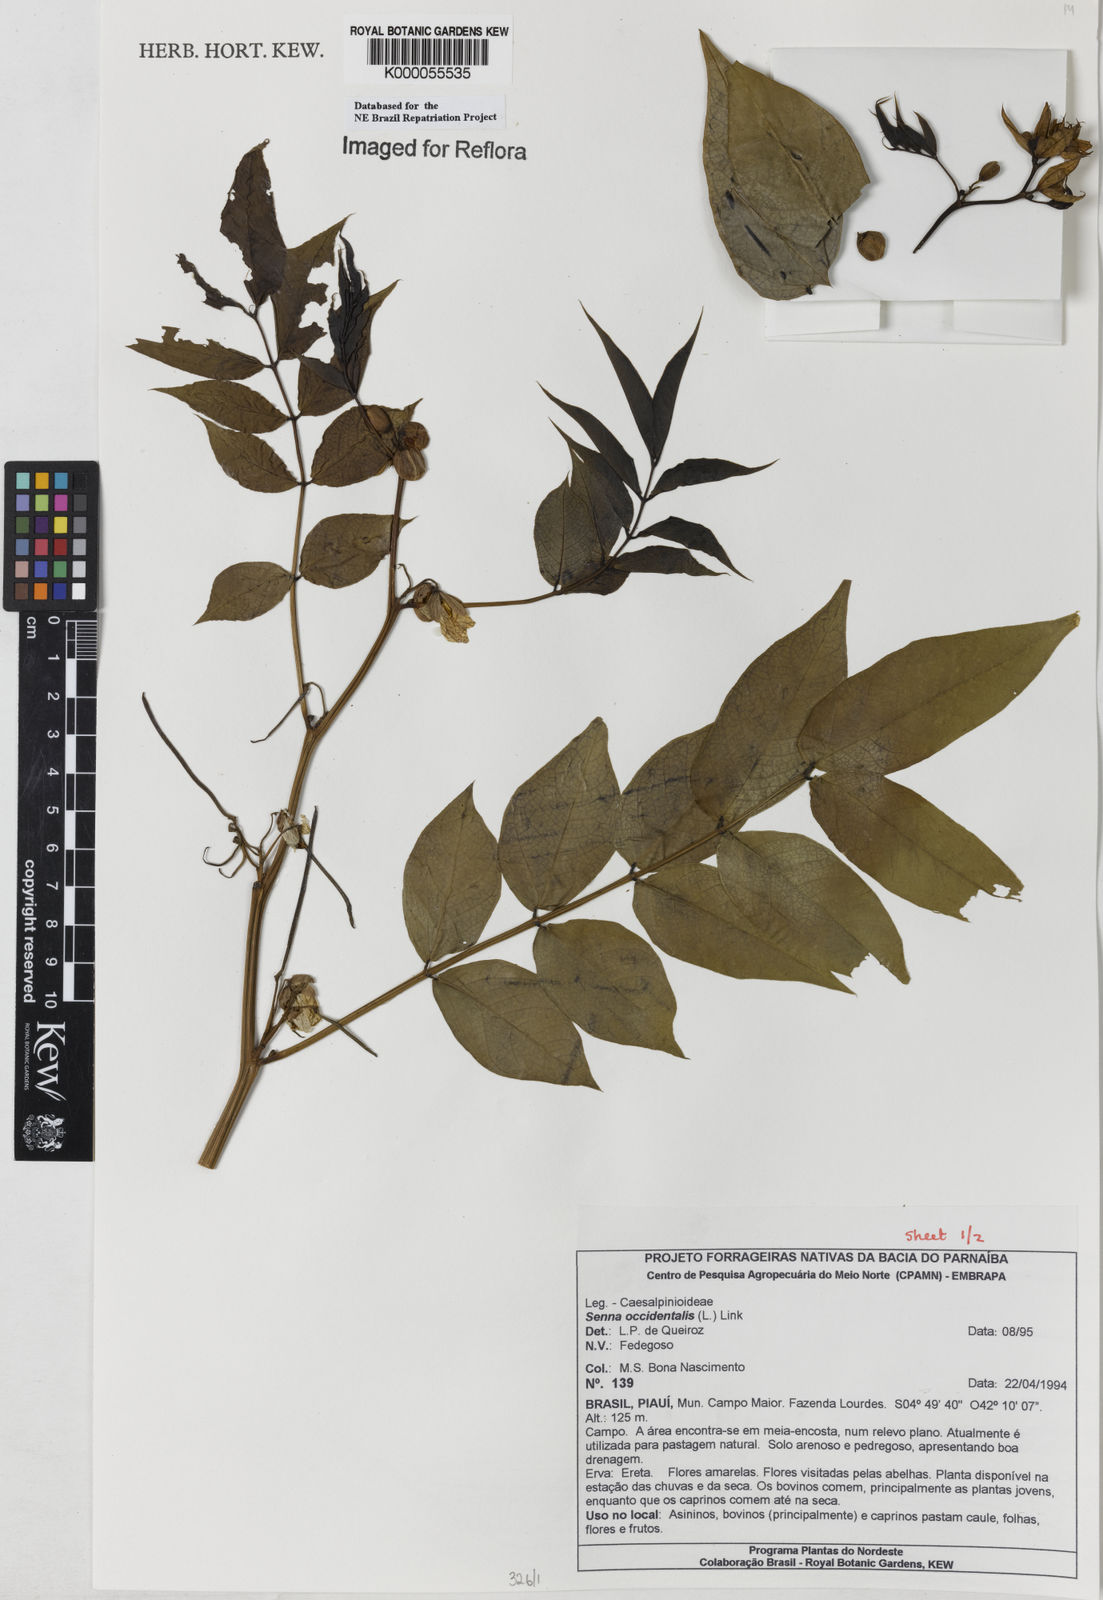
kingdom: Plantae
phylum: Tracheophyta
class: Magnoliopsida
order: Fabales
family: Fabaceae
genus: Senna
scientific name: Senna occidentalis
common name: Septicweed
